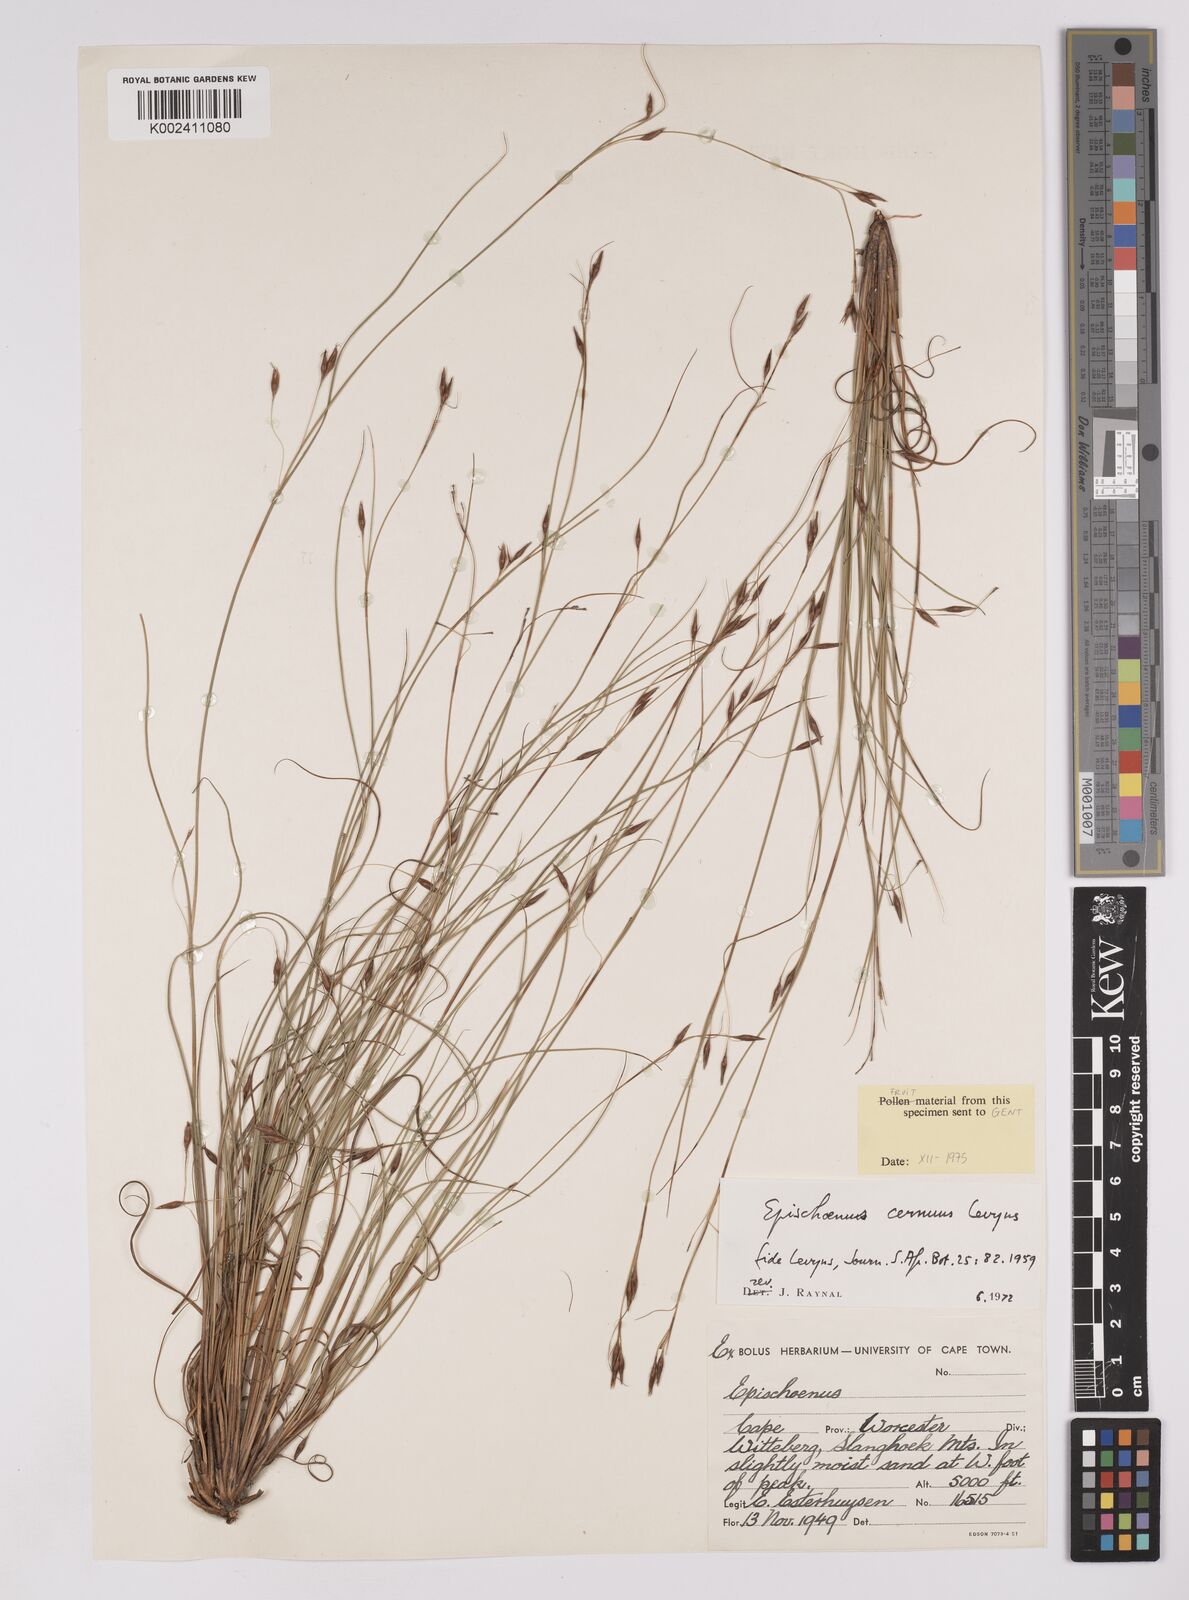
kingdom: Plantae
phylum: Tracheophyta
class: Liliopsida
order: Poales
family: Cyperaceae
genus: Tetraria
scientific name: Tetraria cernua
